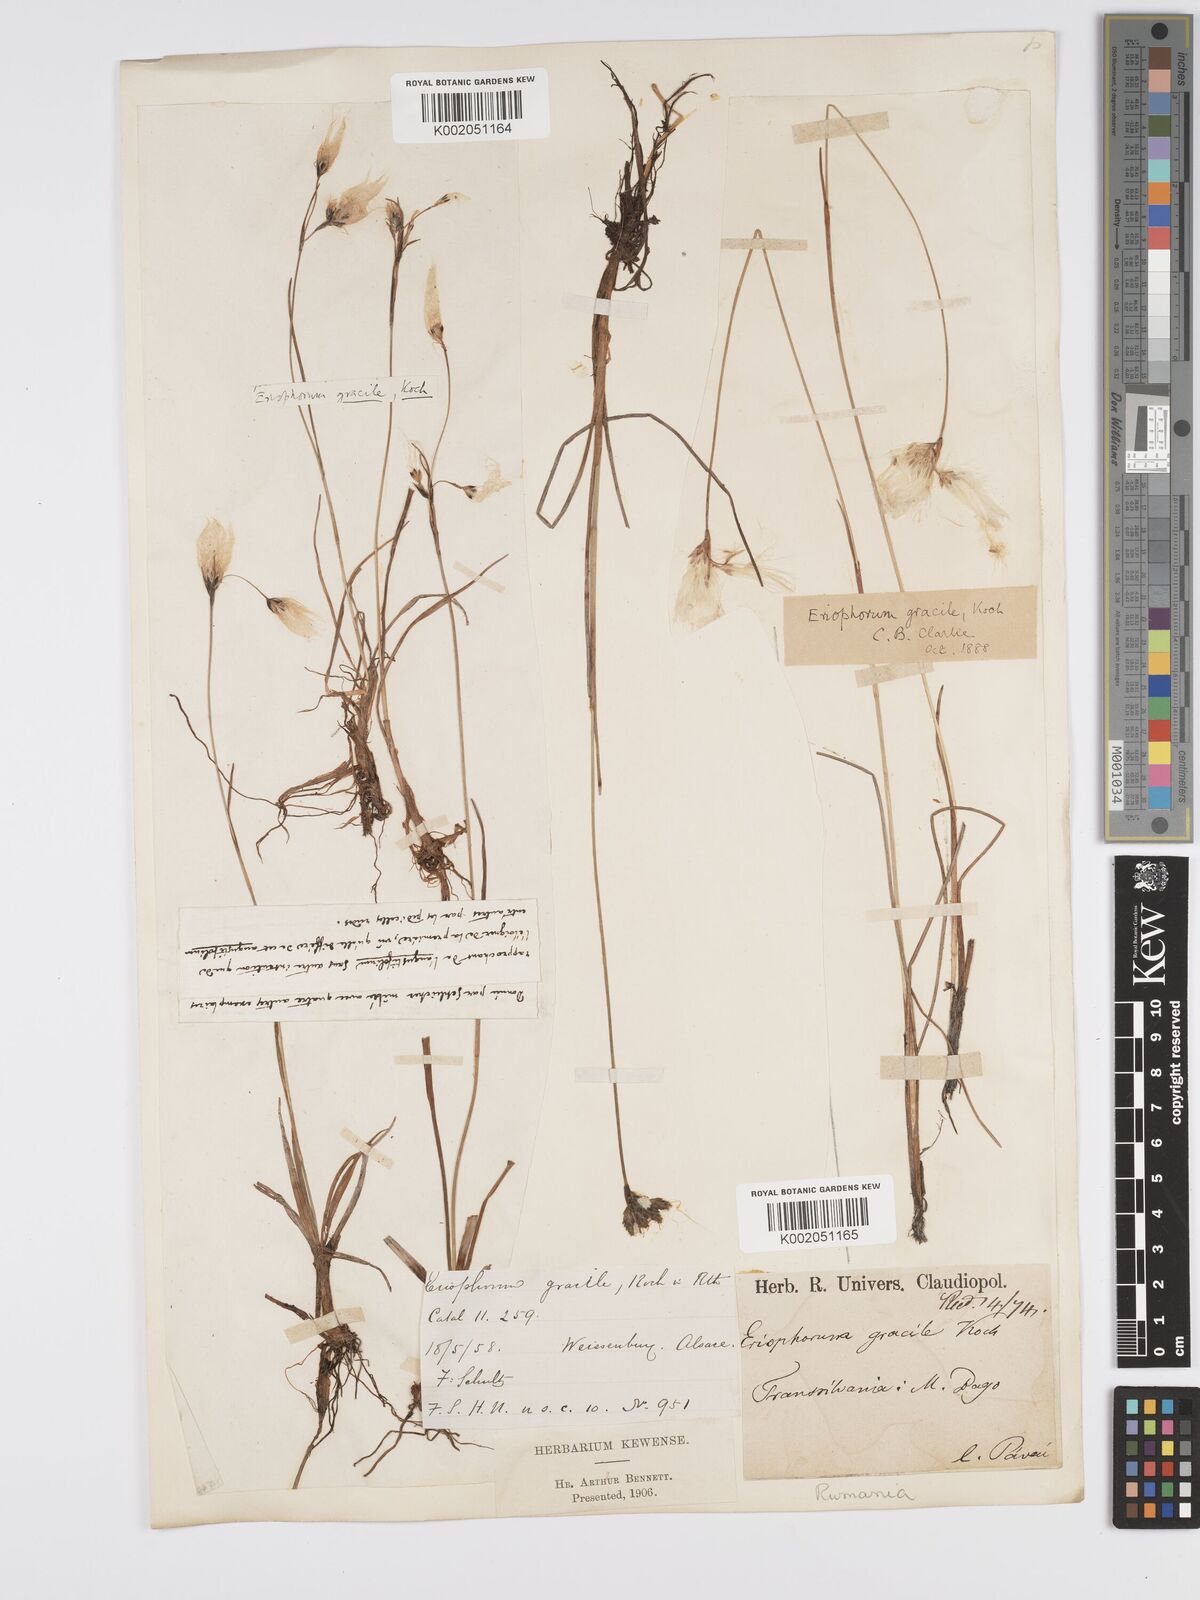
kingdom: Plantae
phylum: Tracheophyta
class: Liliopsida
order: Poales
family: Cyperaceae
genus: Eriophorum
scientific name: Eriophorum gracile
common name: Slender cottongrass
